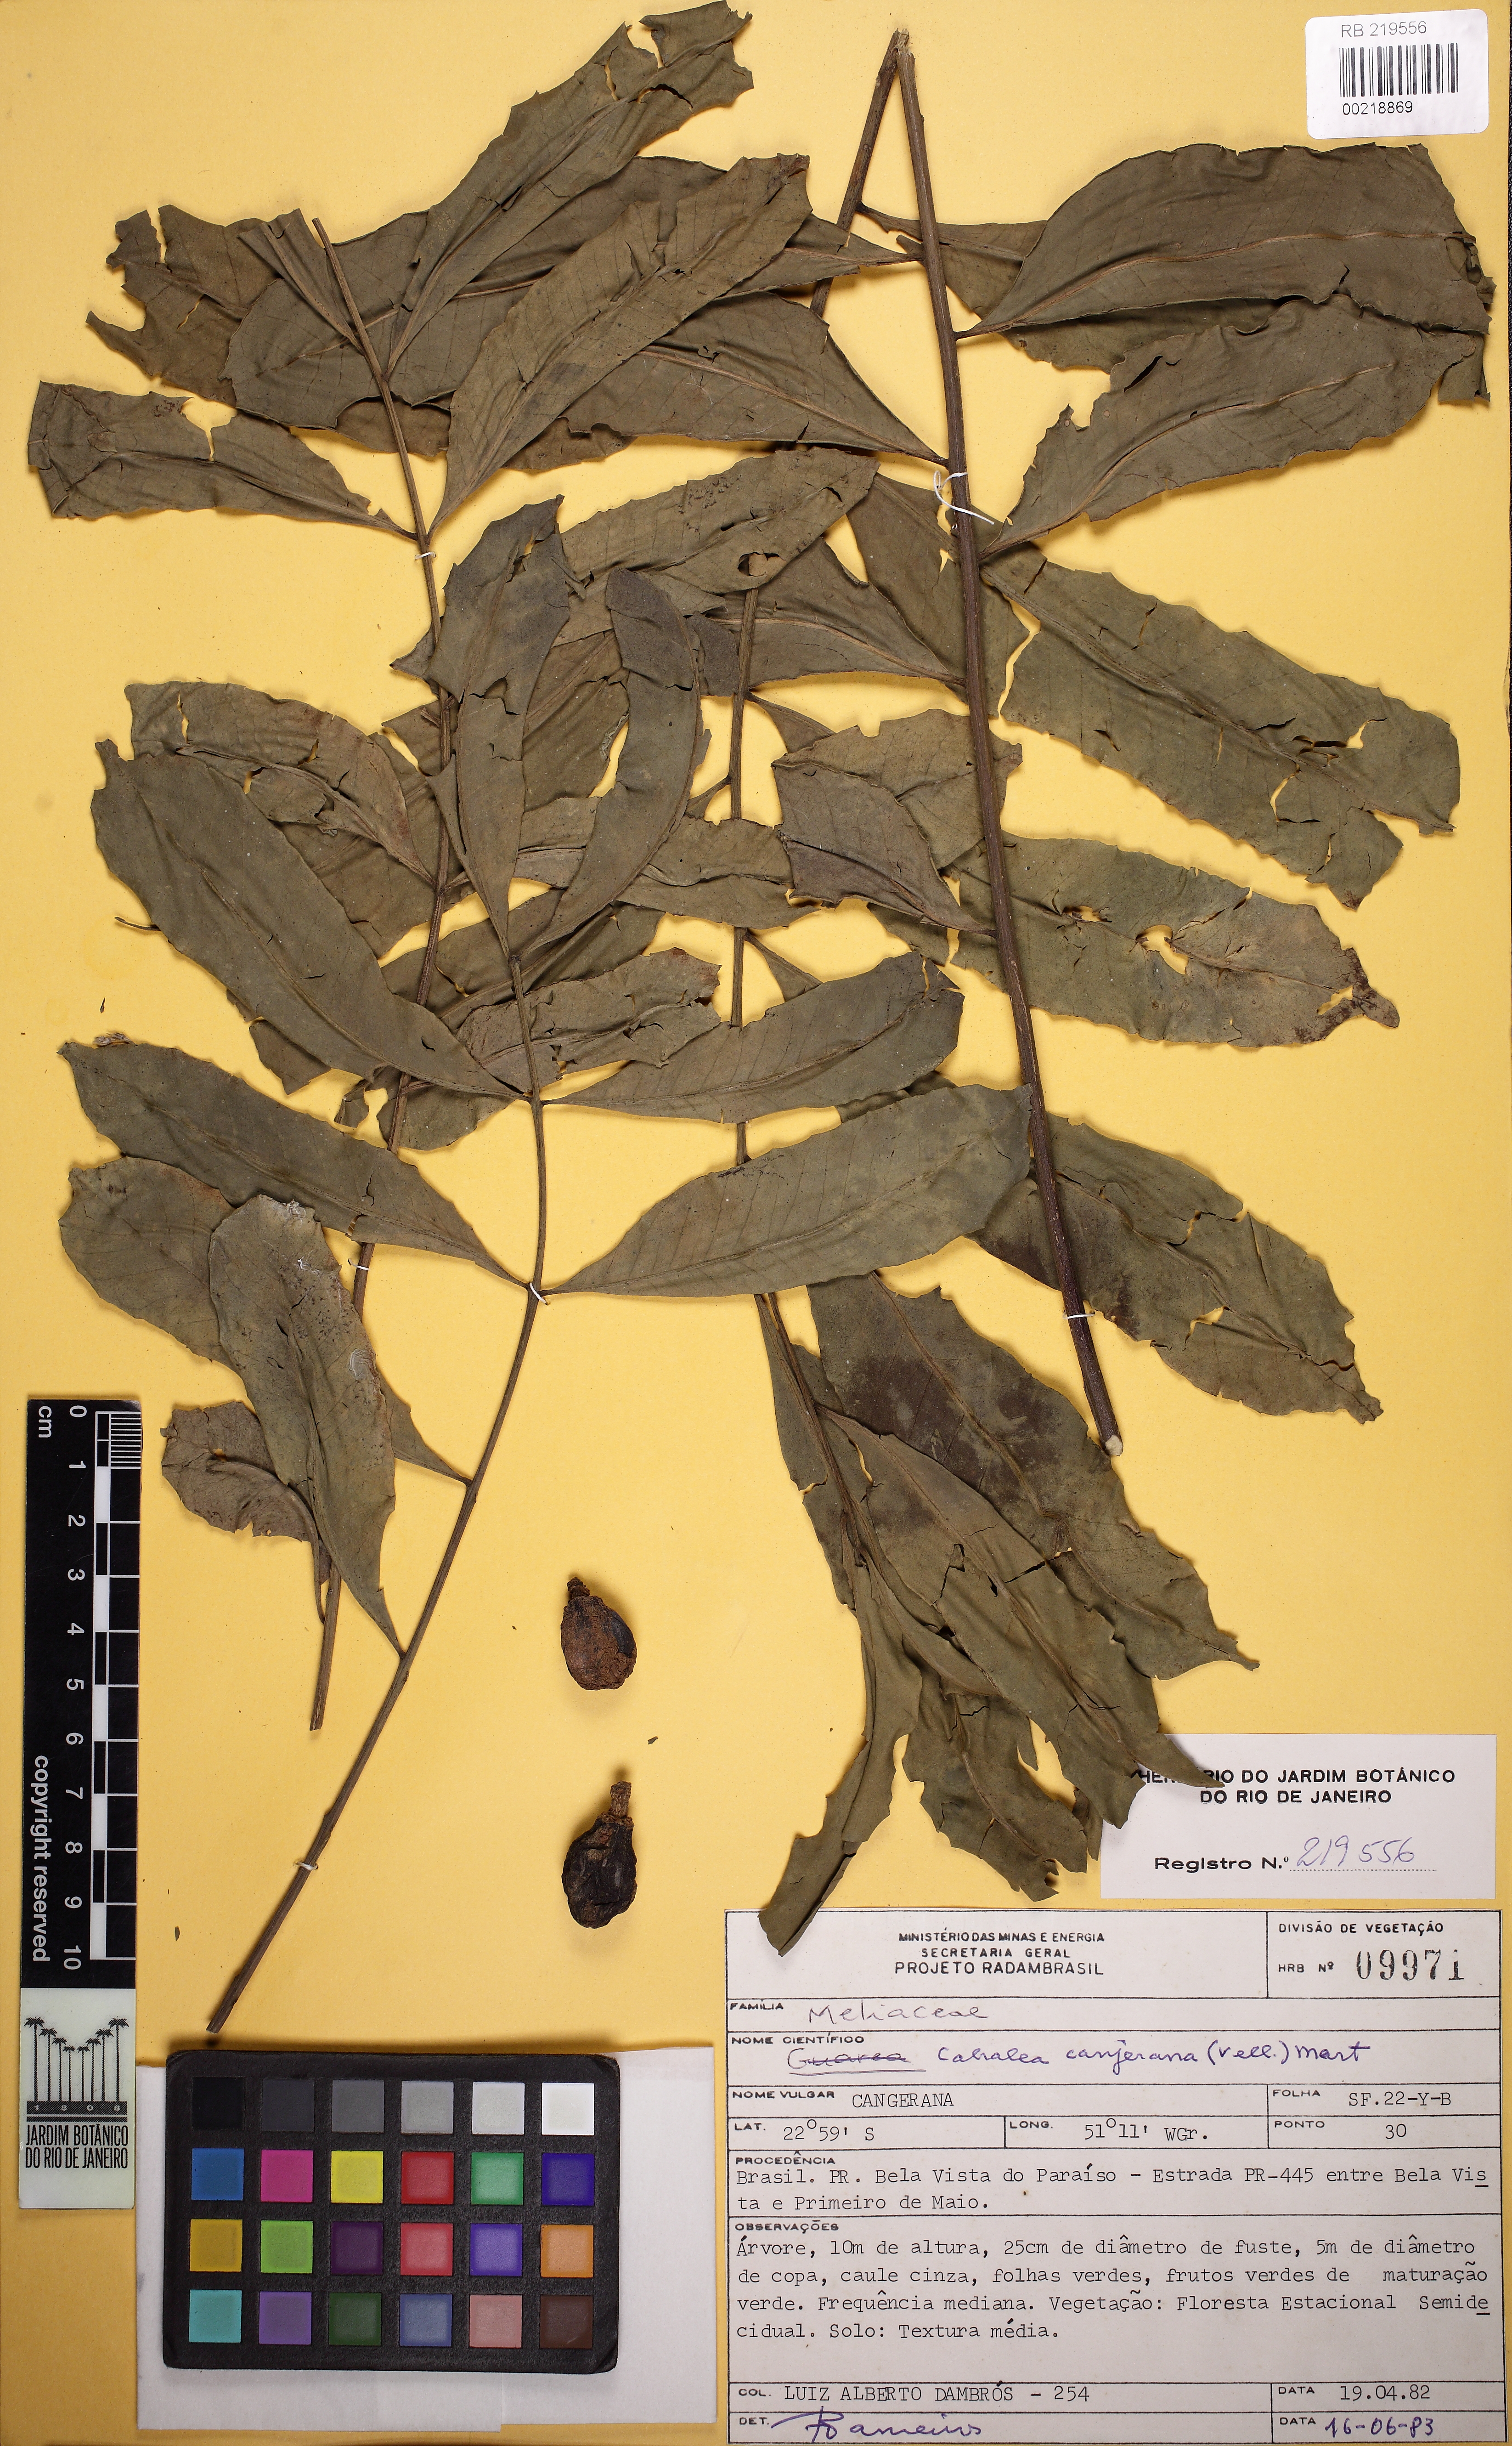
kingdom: Plantae
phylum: Tracheophyta
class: Magnoliopsida
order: Sapindales
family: Meliaceae
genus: Cabralea
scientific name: Cabralea canjerana
